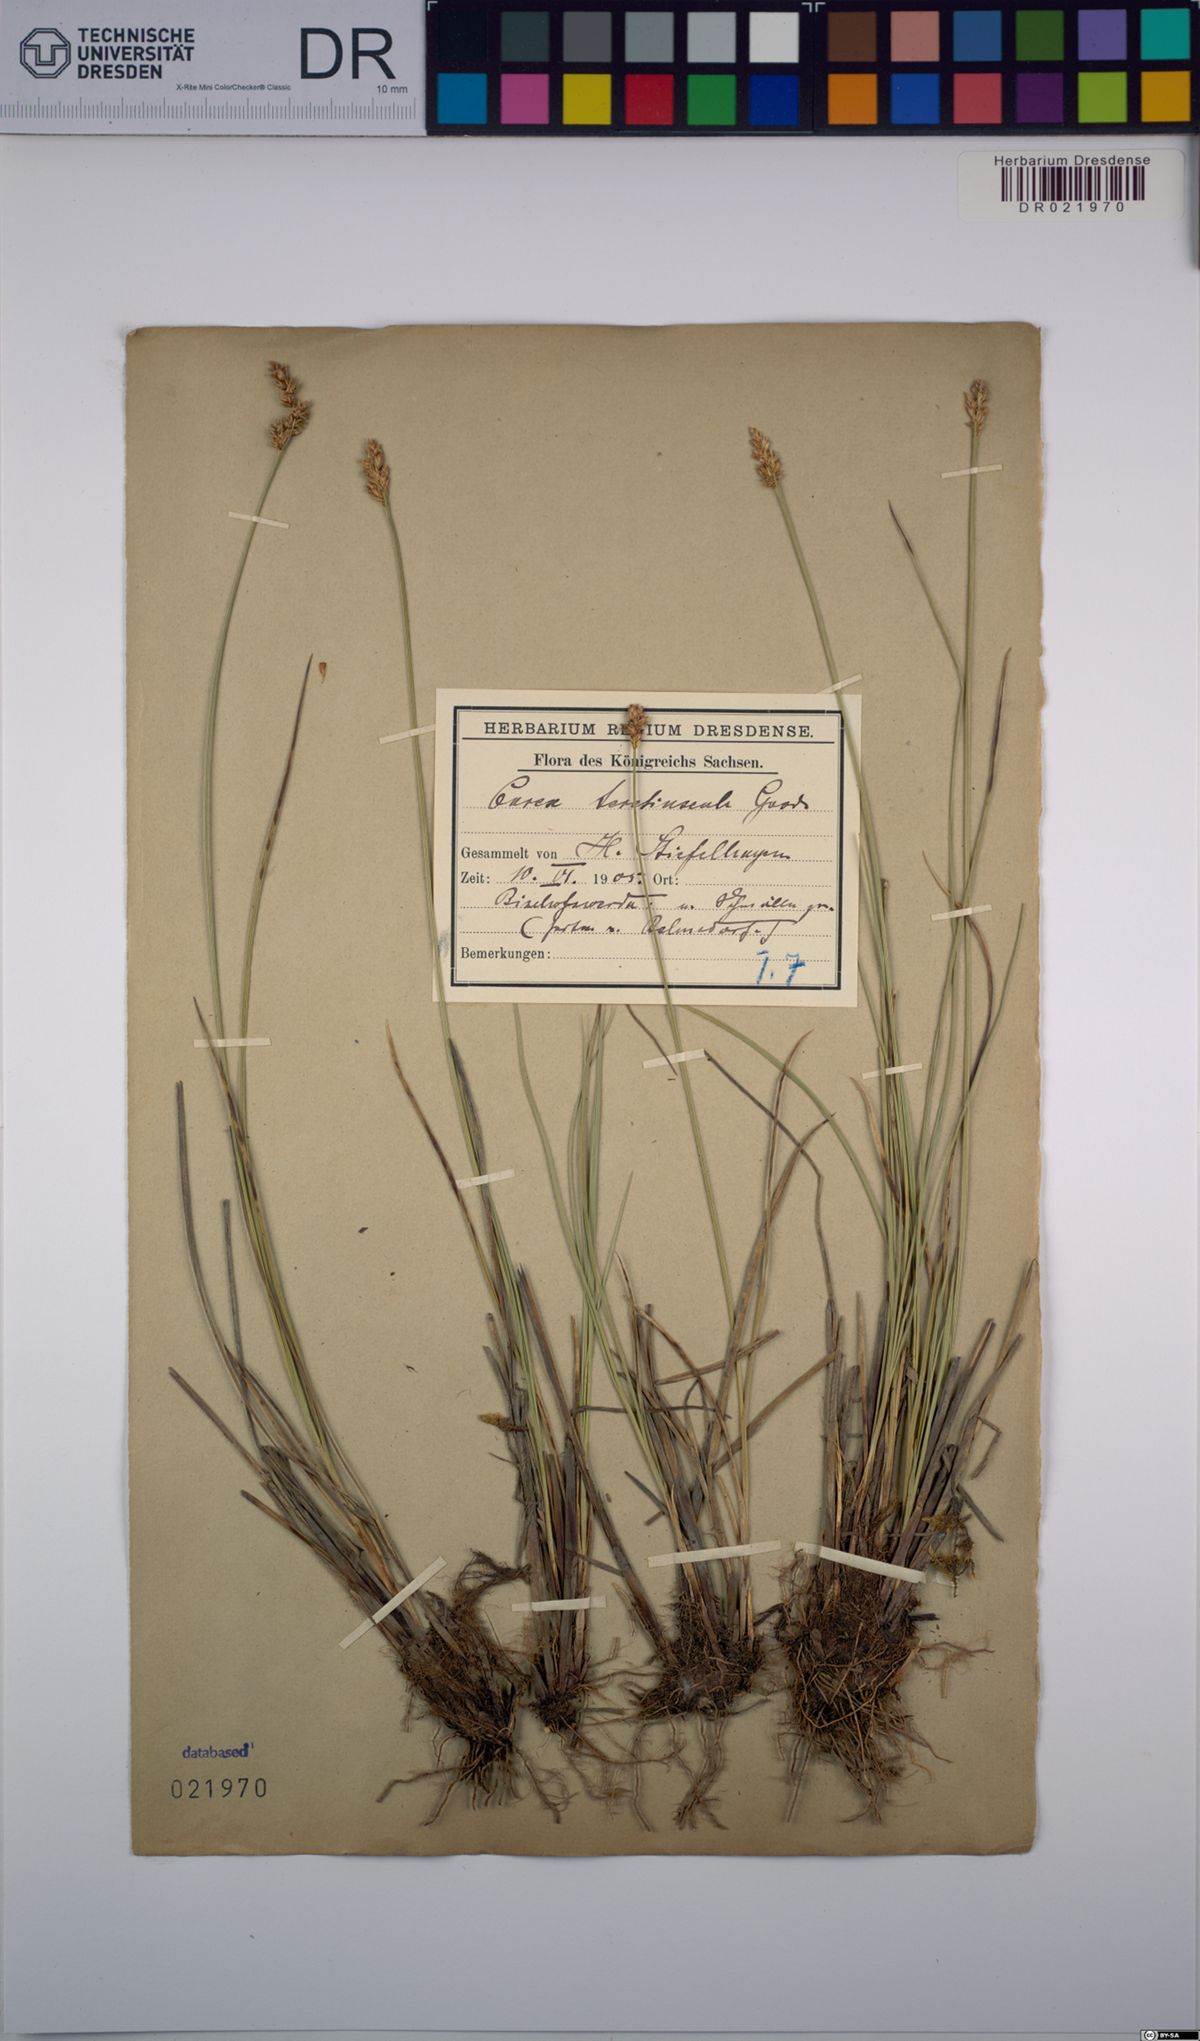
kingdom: Plantae
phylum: Tracheophyta
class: Liliopsida
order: Poales
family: Cyperaceae
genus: Carex
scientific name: Carex diandra
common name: Lesser tussock-sedge
